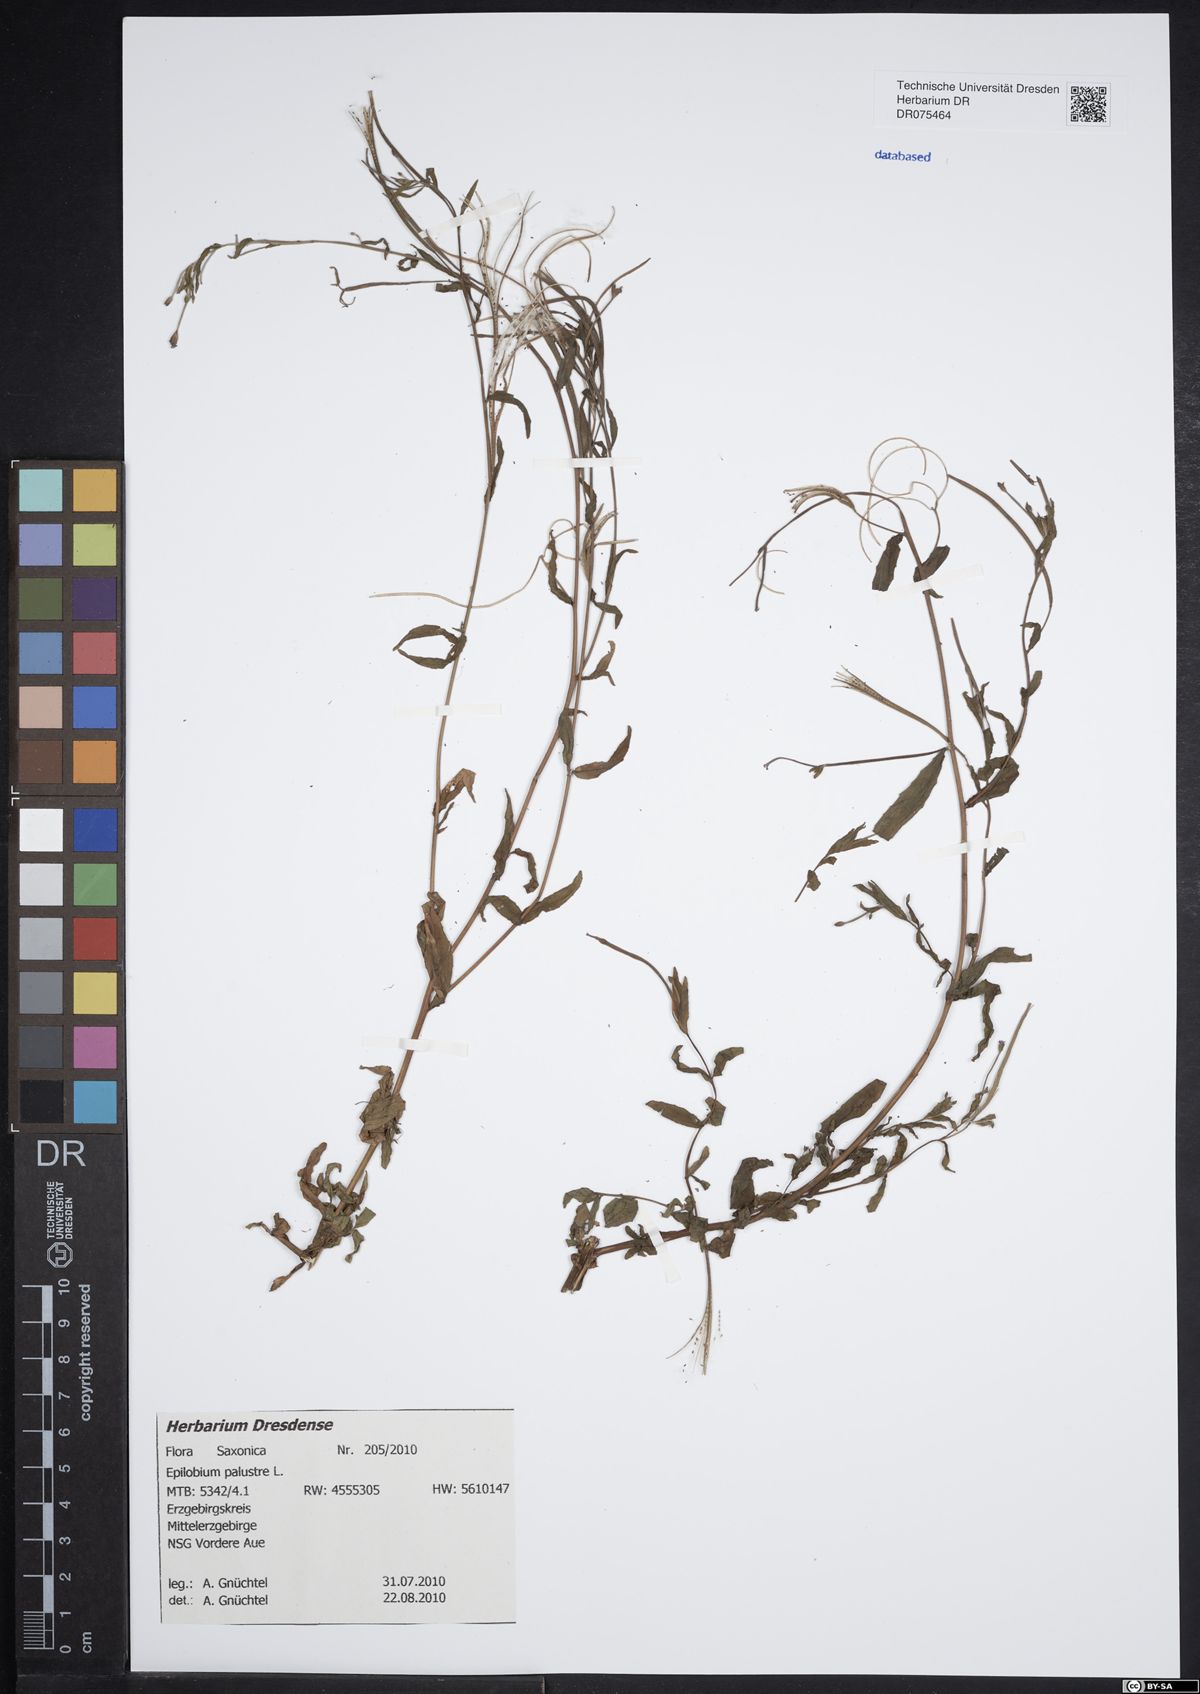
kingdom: Plantae
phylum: Tracheophyta
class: Magnoliopsida
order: Myrtales
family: Onagraceae
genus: Epilobium
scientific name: Epilobium palustre
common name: Marsh willowherb
